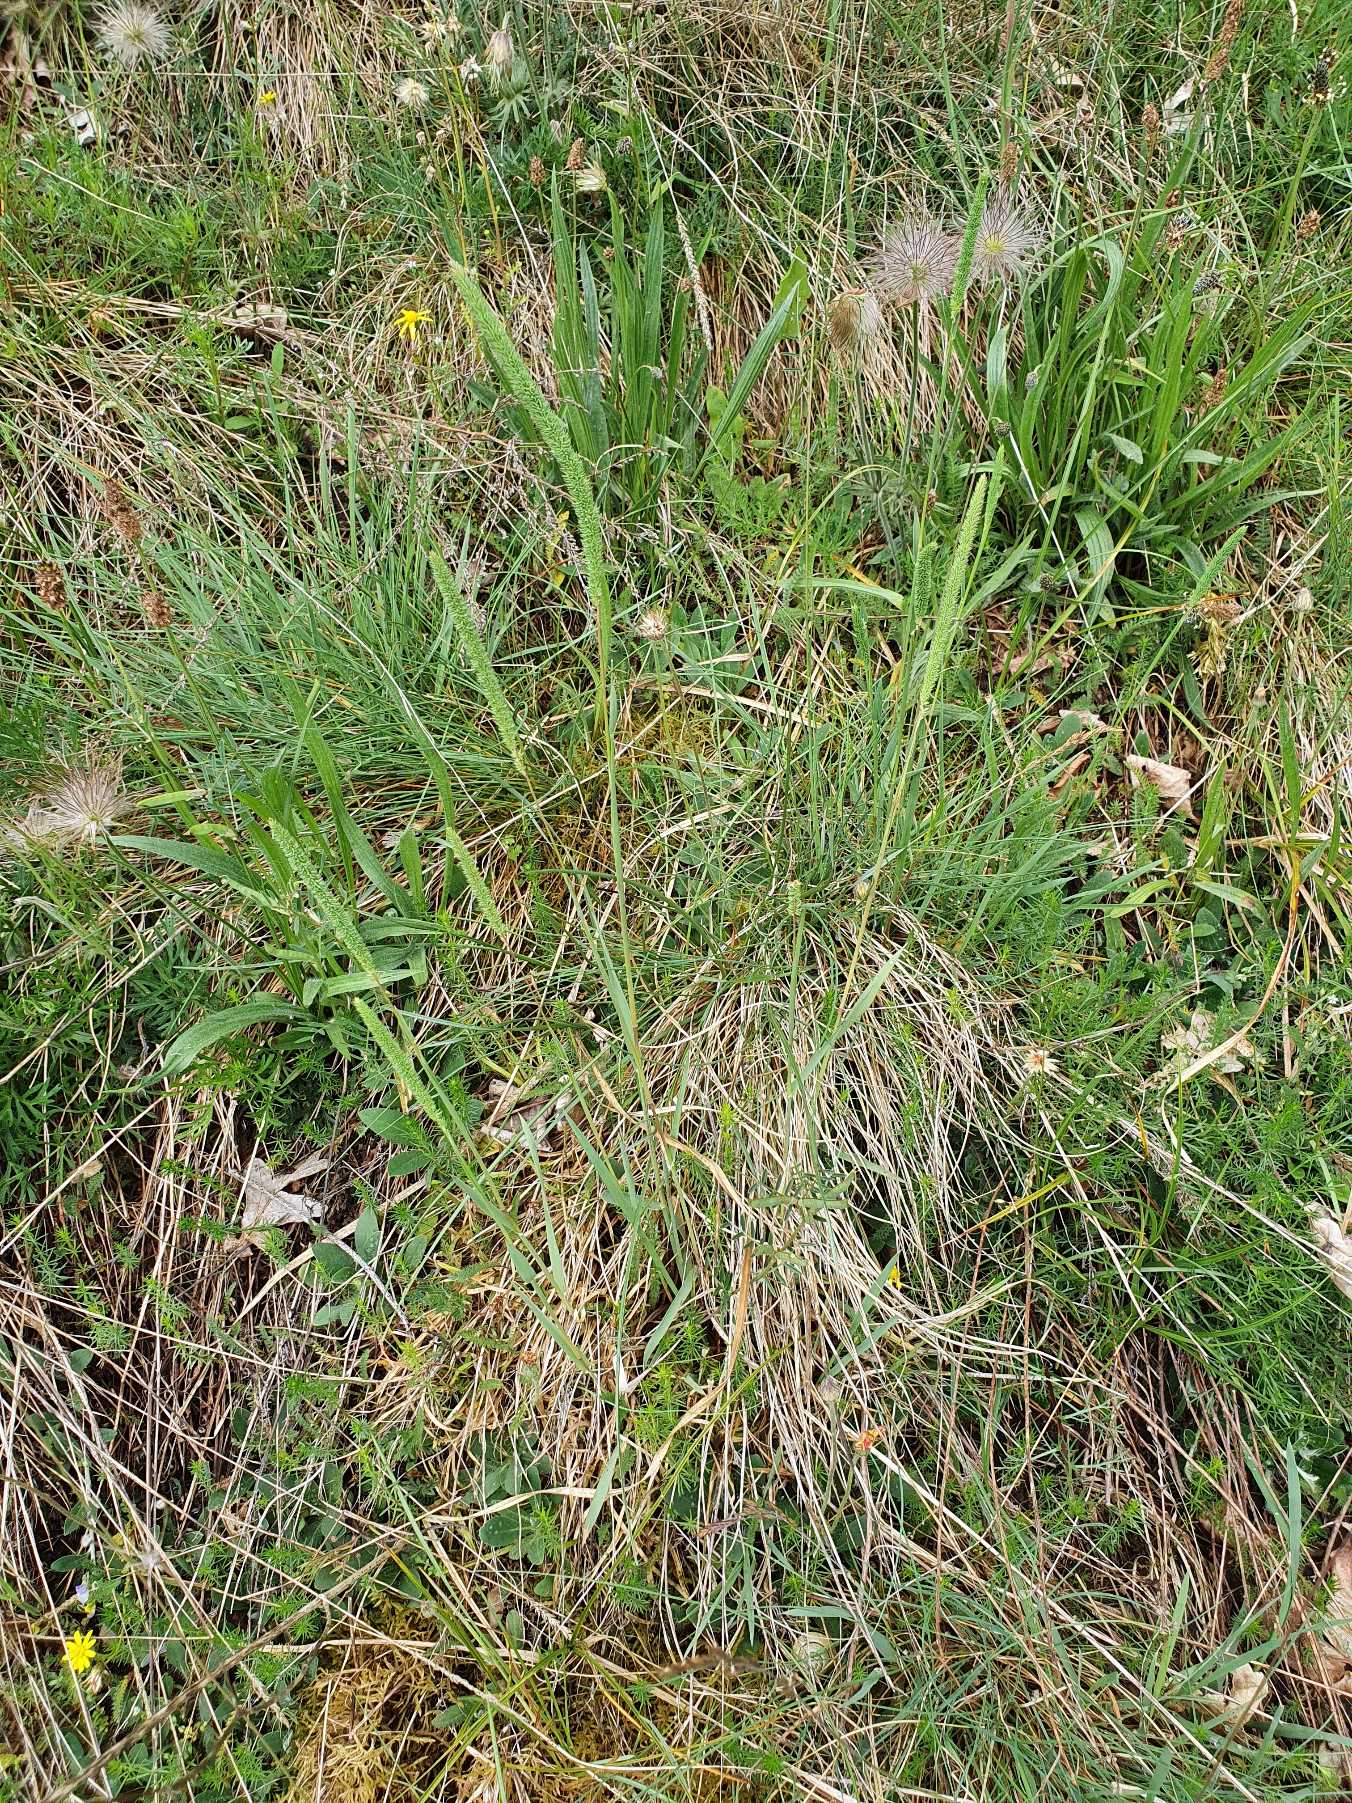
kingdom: Plantae
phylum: Tracheophyta
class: Liliopsida
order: Poales
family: Poaceae
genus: Phleum
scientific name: Phleum phleoides
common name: Glat rottehale
